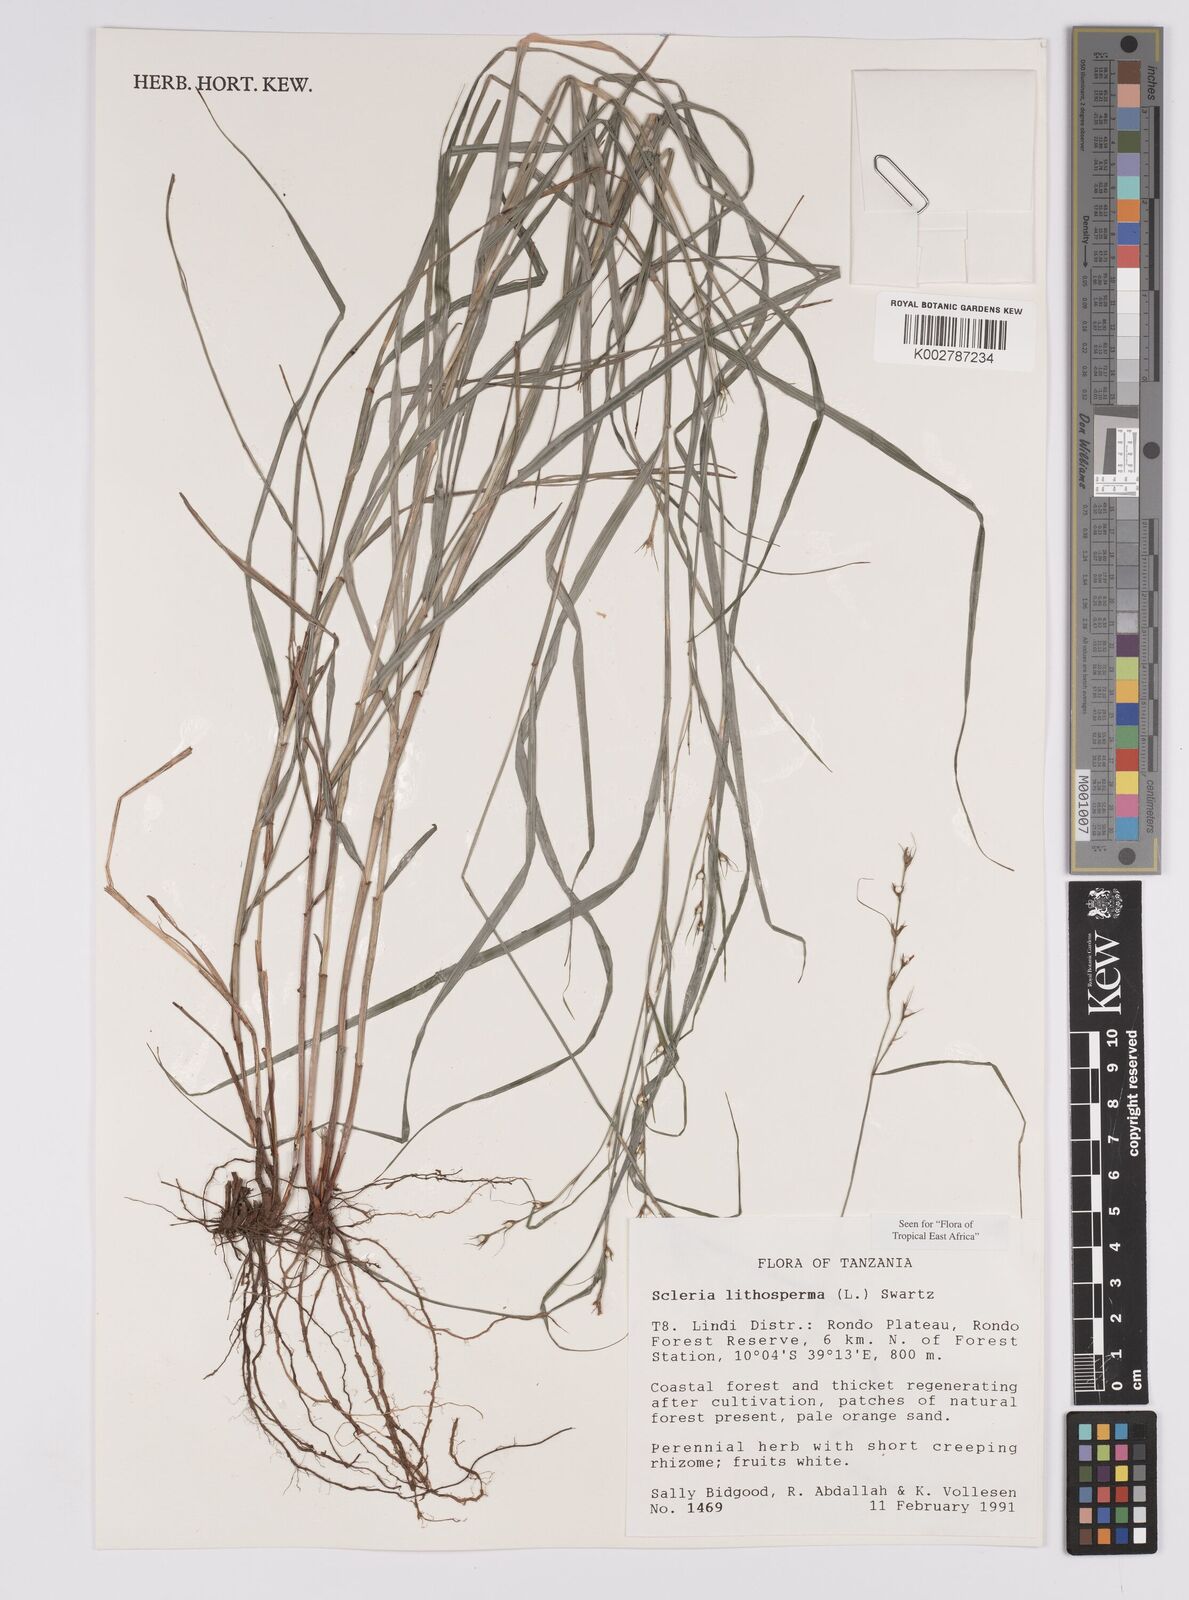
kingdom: Plantae
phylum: Tracheophyta
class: Liliopsida
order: Poales
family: Cyperaceae
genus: Scleria
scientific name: Scleria lithosperma
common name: Florida keys nut-rush
